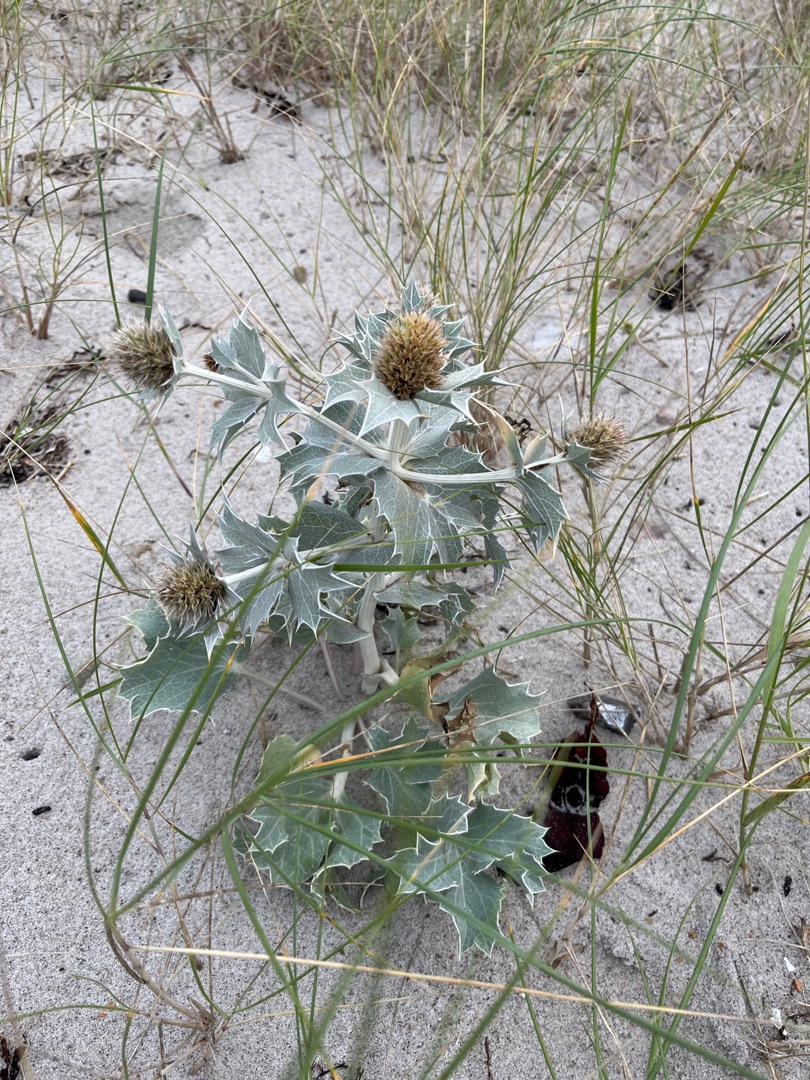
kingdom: Plantae
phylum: Tracheophyta
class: Magnoliopsida
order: Apiales
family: Apiaceae
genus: Eryngium
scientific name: Eryngium maritimum
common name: Strand-mandstro
